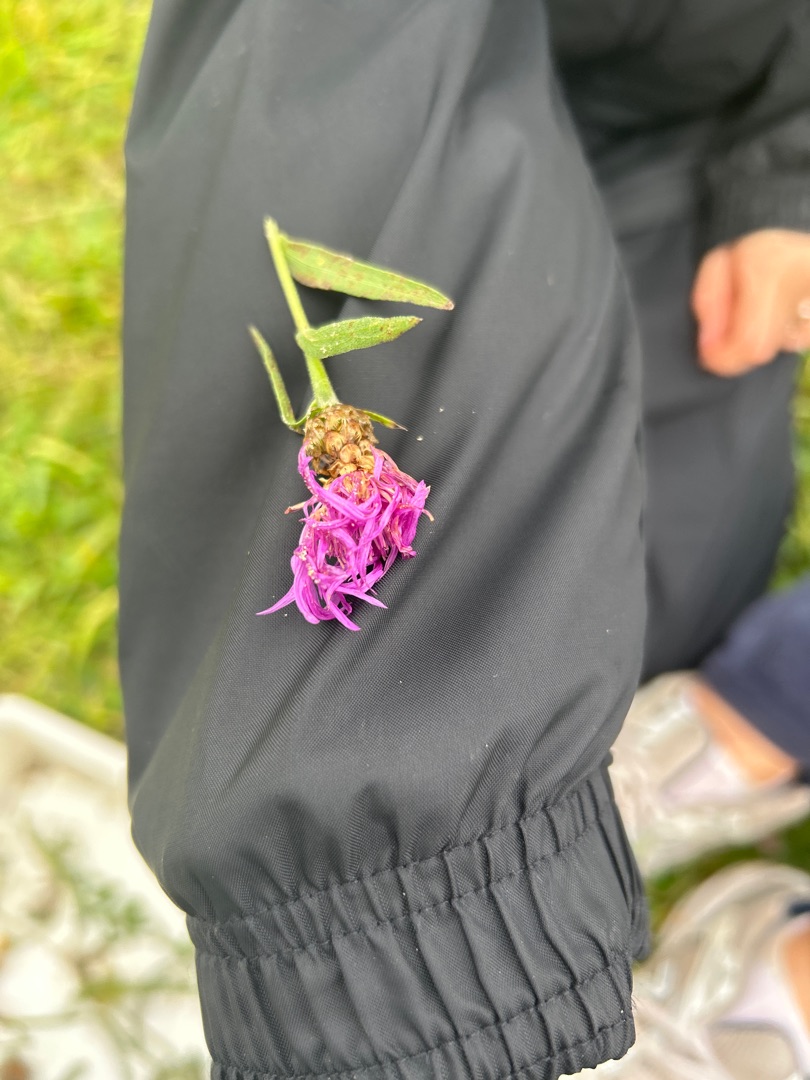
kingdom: Plantae
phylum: Tracheophyta
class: Magnoliopsida
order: Asterales
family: Asteraceae
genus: Centaurea
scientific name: Centaurea jacea
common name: Almindelig knopurt
